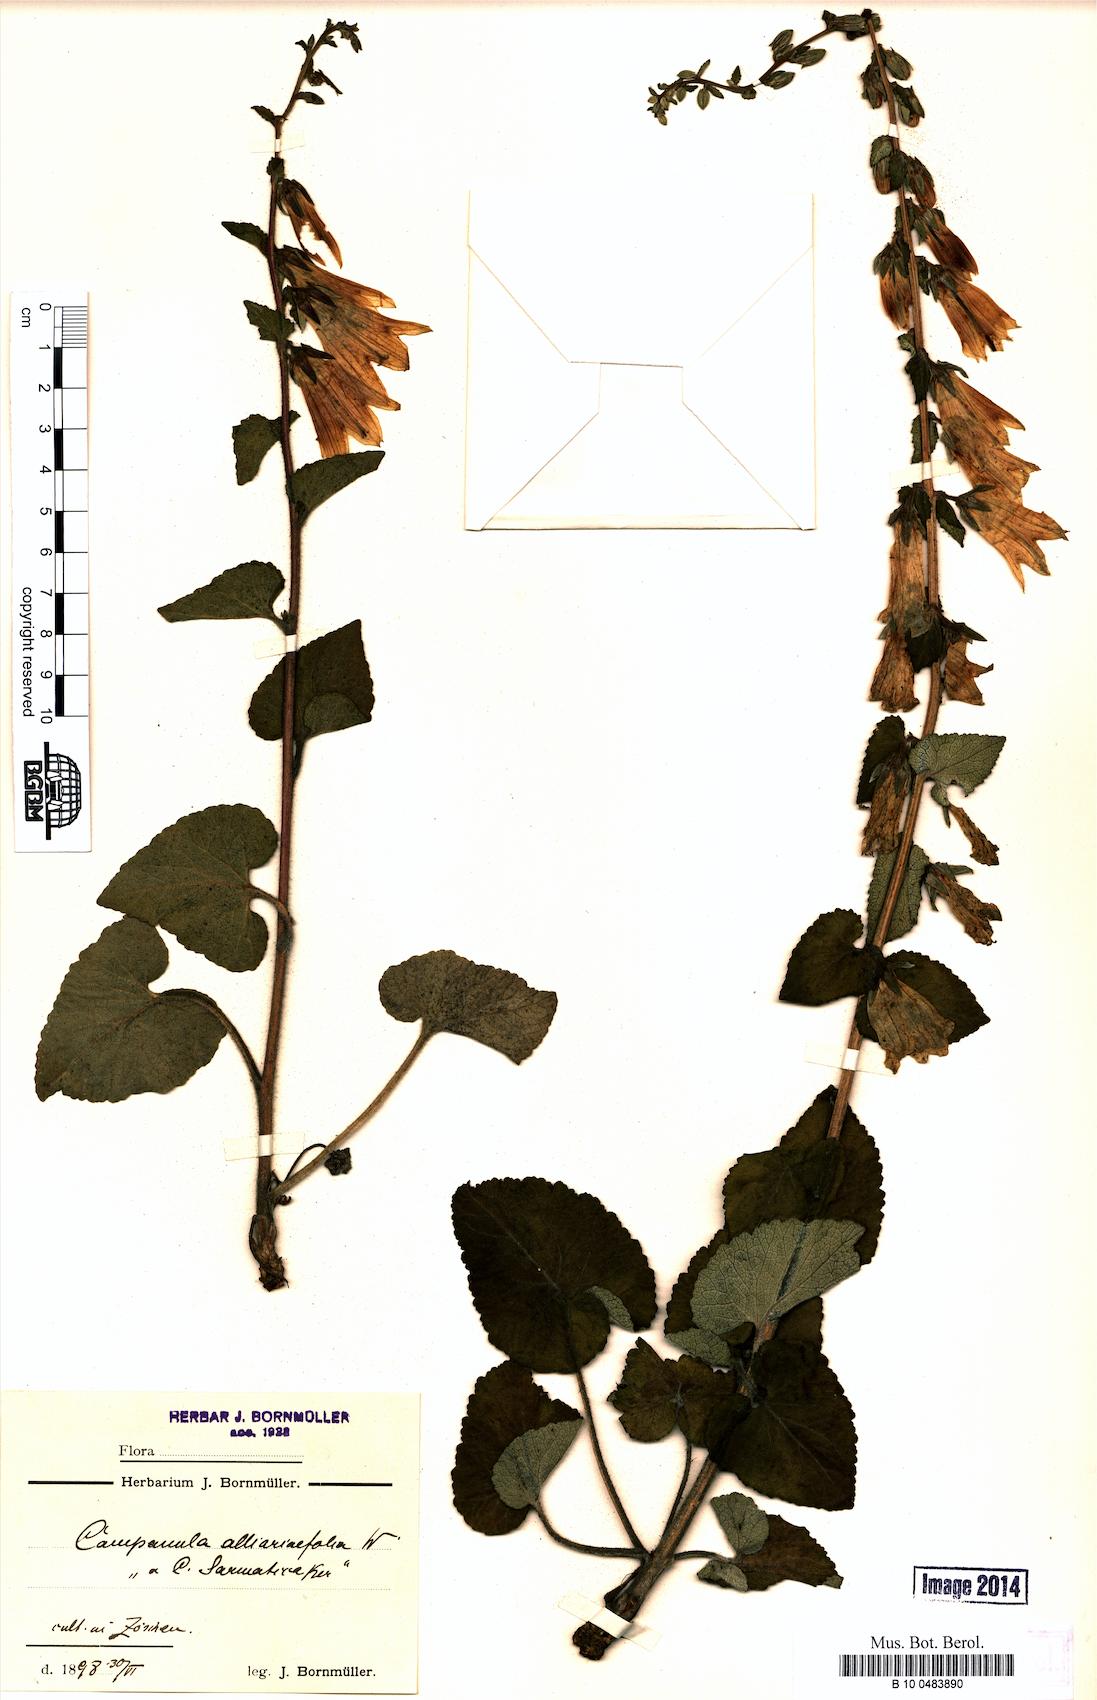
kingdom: Plantae
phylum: Tracheophyta
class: Magnoliopsida
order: Asterales
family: Campanulaceae
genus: Campanula
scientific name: Campanula alliariifolia
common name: Cornish bellflower
